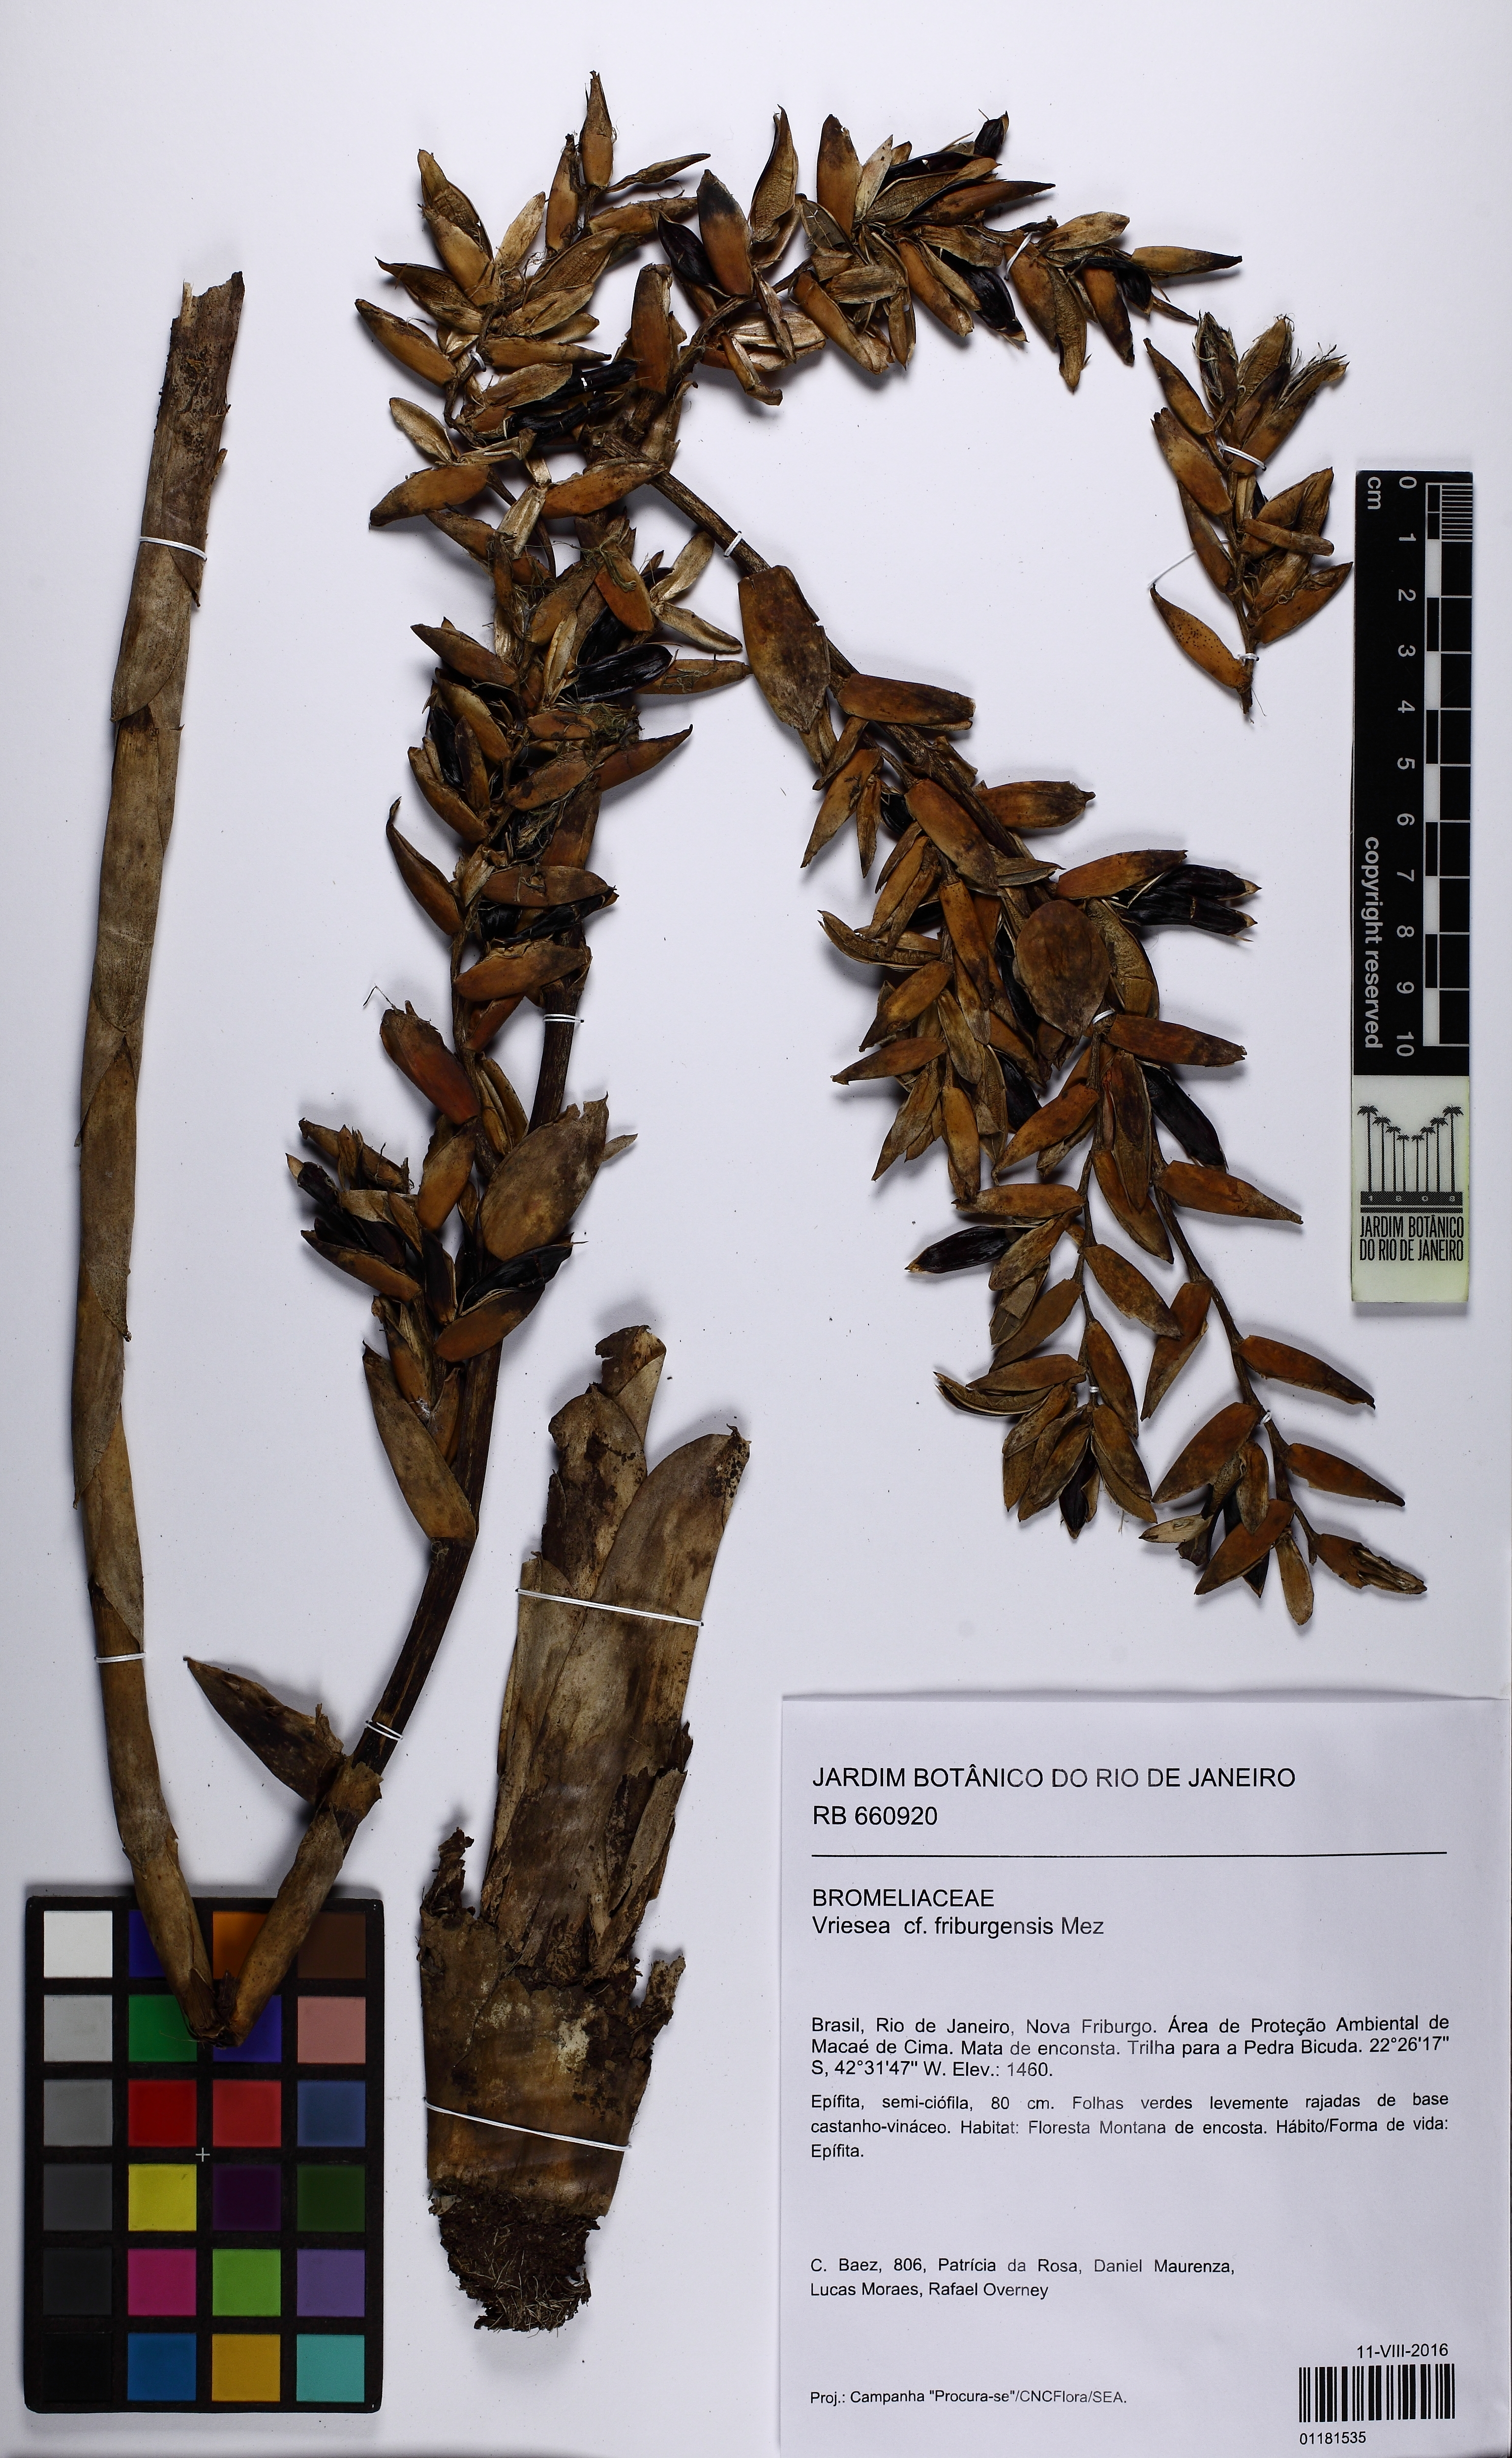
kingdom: Plantae
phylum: Tracheophyta
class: Liliopsida
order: Poales
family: Bromeliaceae
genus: Vriesea
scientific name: Vriesea friburgensis
